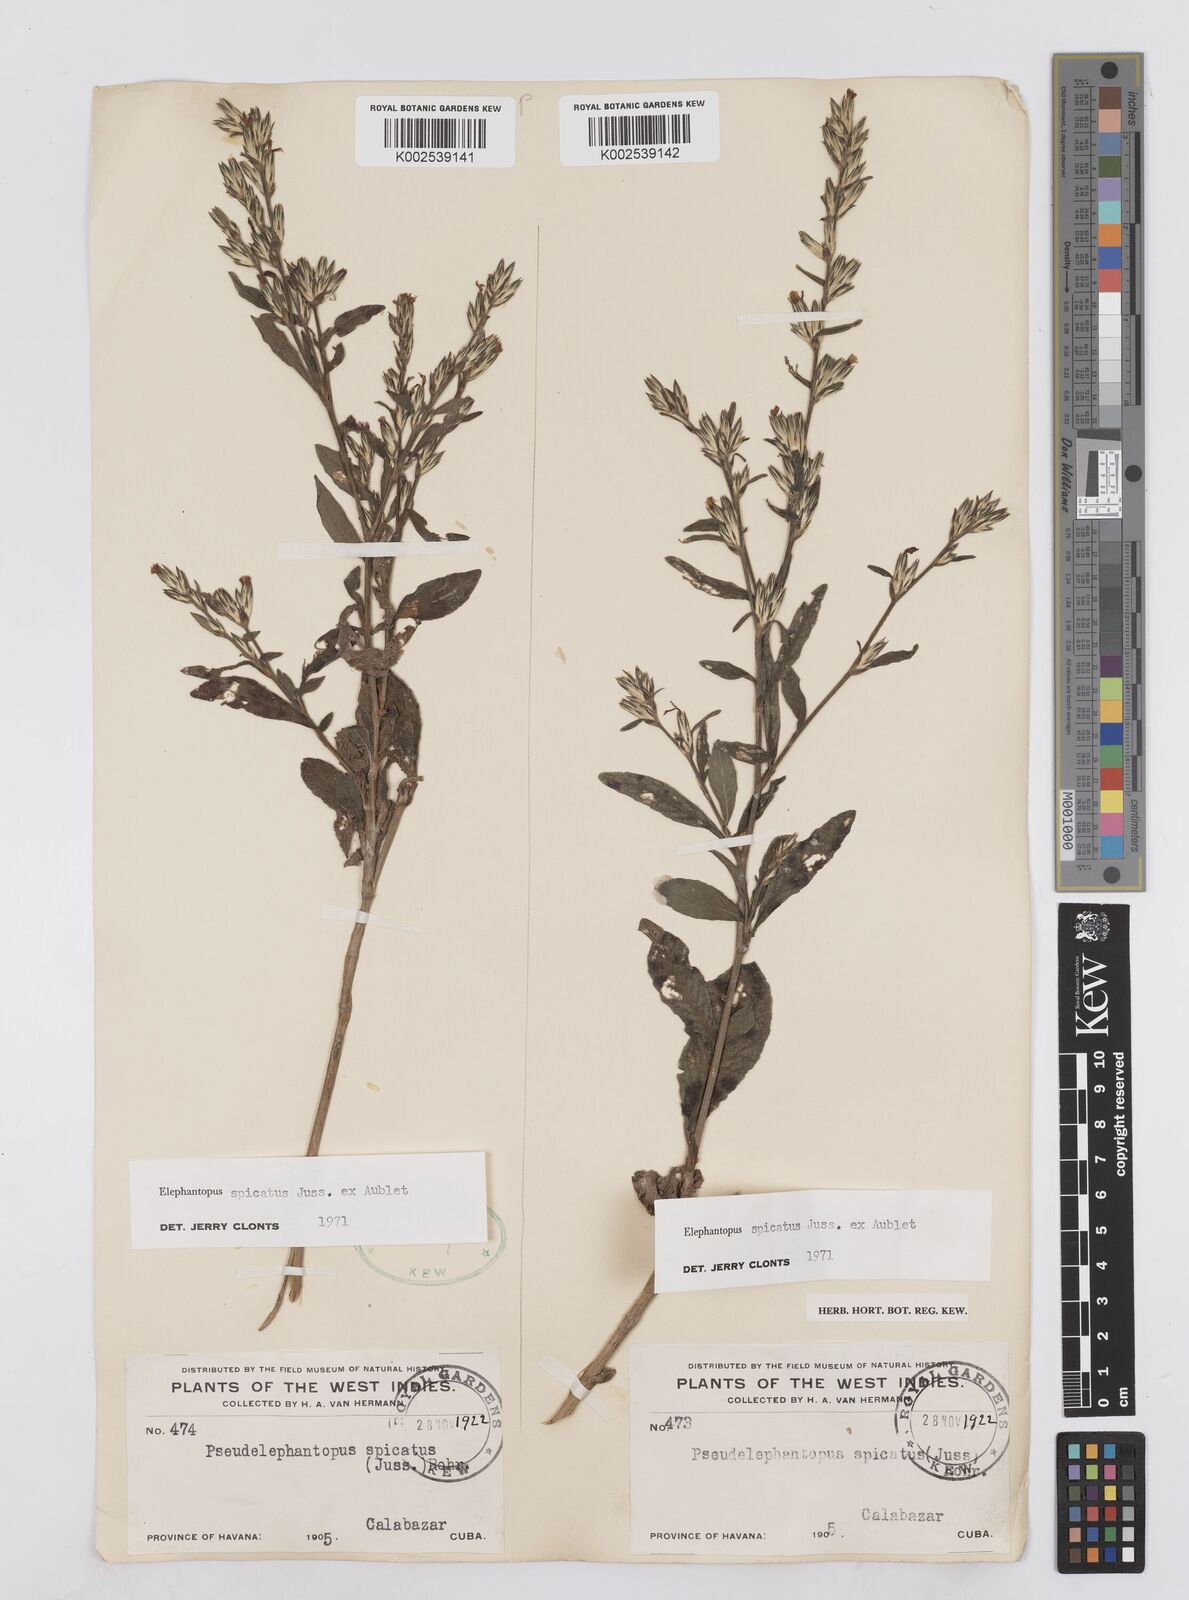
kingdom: Plantae
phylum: Tracheophyta
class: Magnoliopsida
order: Asterales
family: Asteraceae
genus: Pseudelephantopus
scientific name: Pseudelephantopus spicatus
